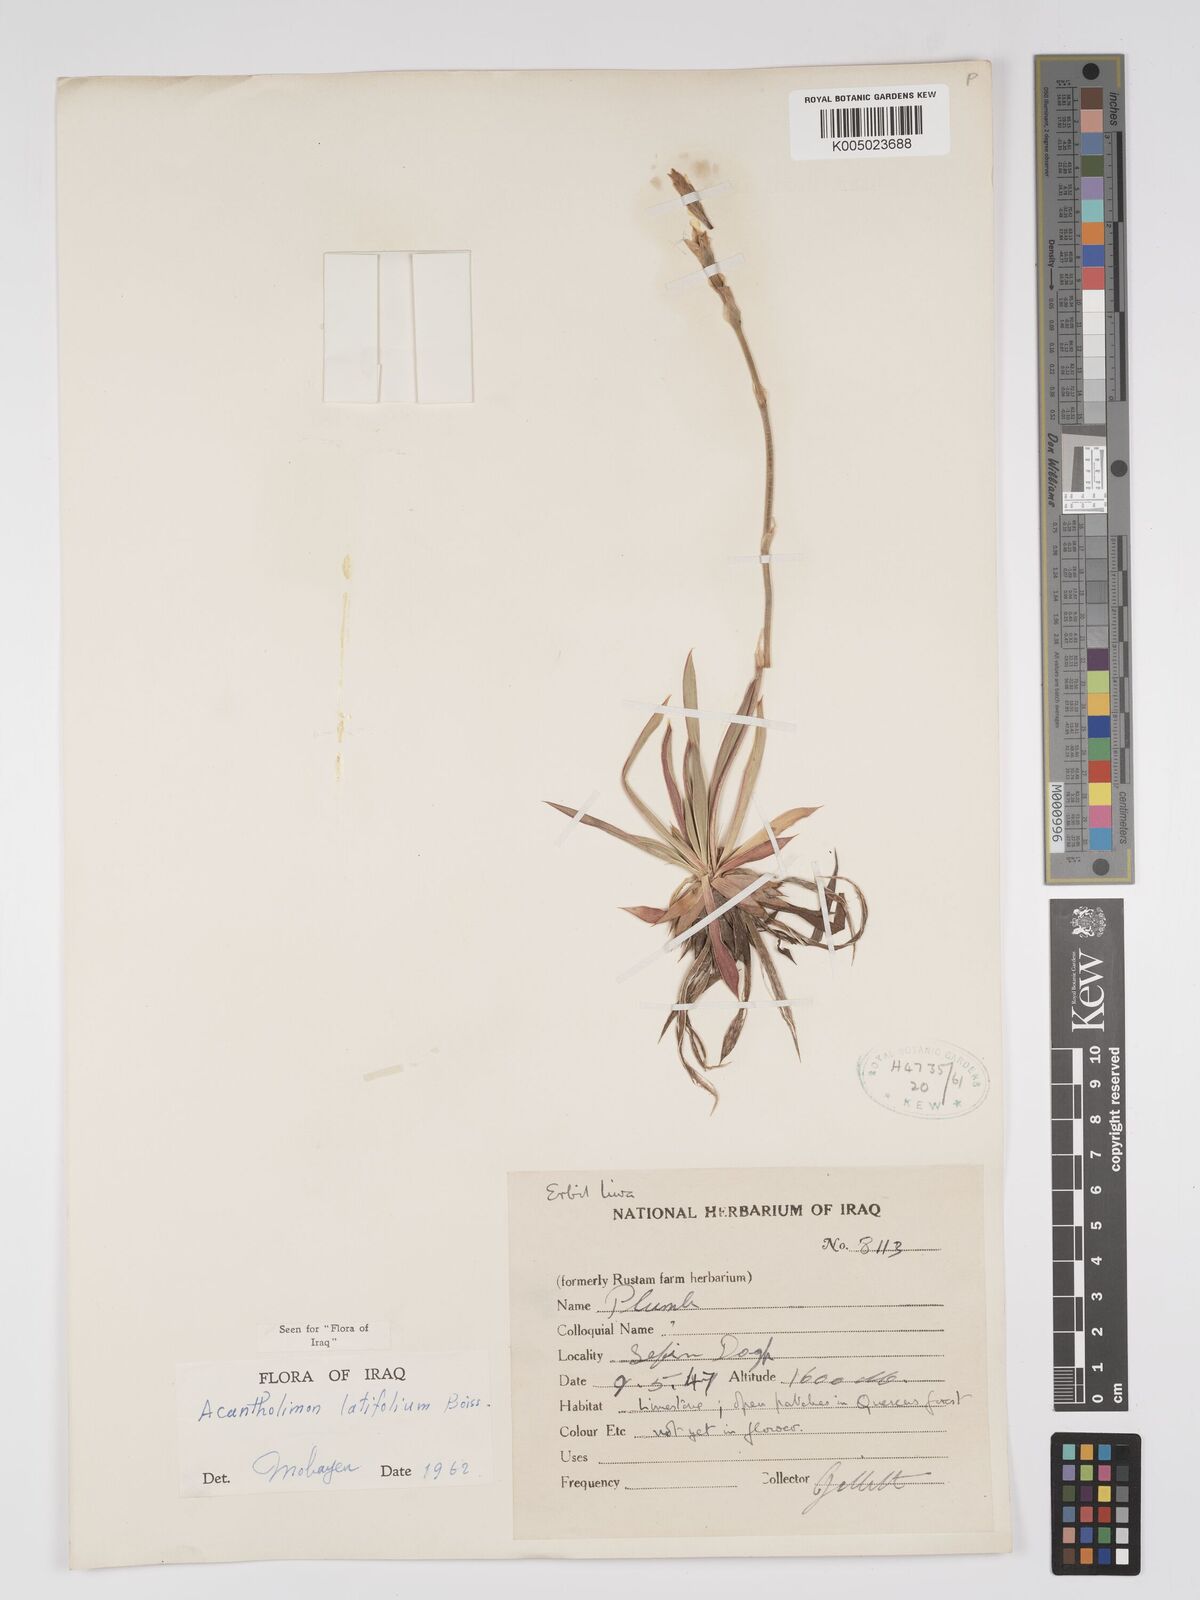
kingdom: Plantae
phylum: Tracheophyta
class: Magnoliopsida
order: Caryophyllales
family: Plumbaginaceae
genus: Acantholimon
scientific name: Acantholimon
